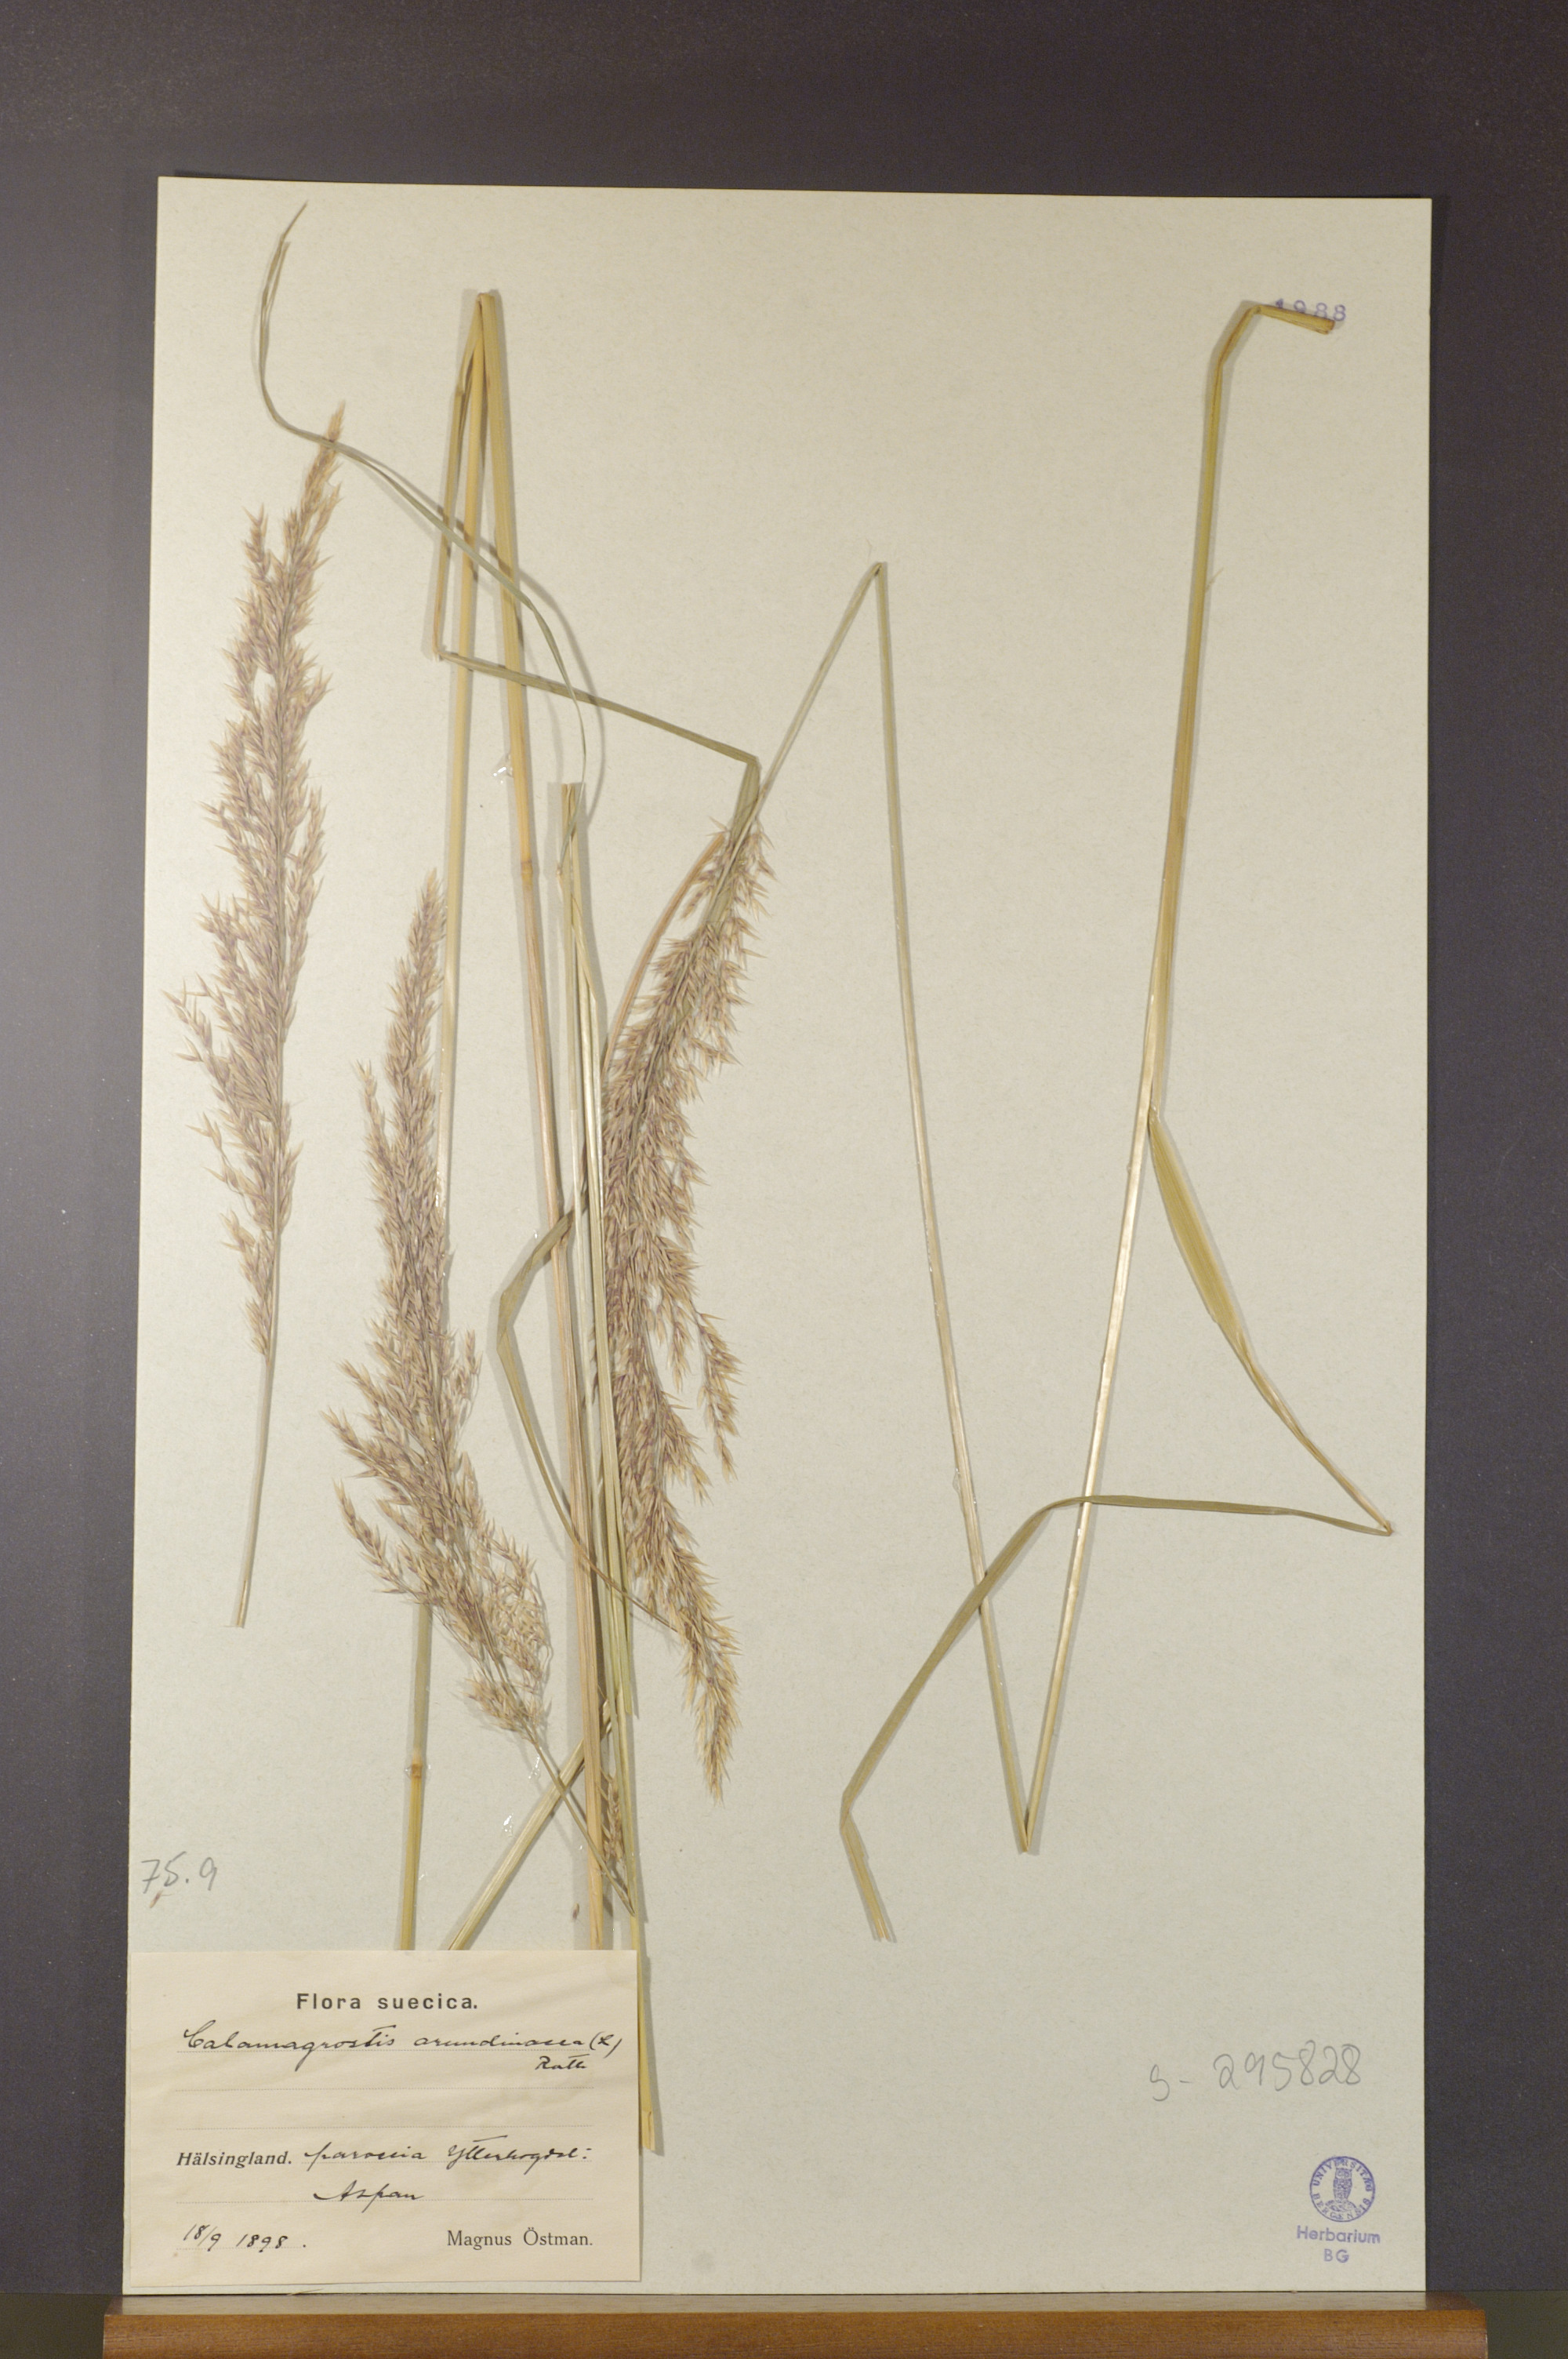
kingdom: Plantae
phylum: Tracheophyta
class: Liliopsida
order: Poales
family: Poaceae
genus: Calamagrostis
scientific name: Calamagrostis arundinacea
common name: Metskastik
